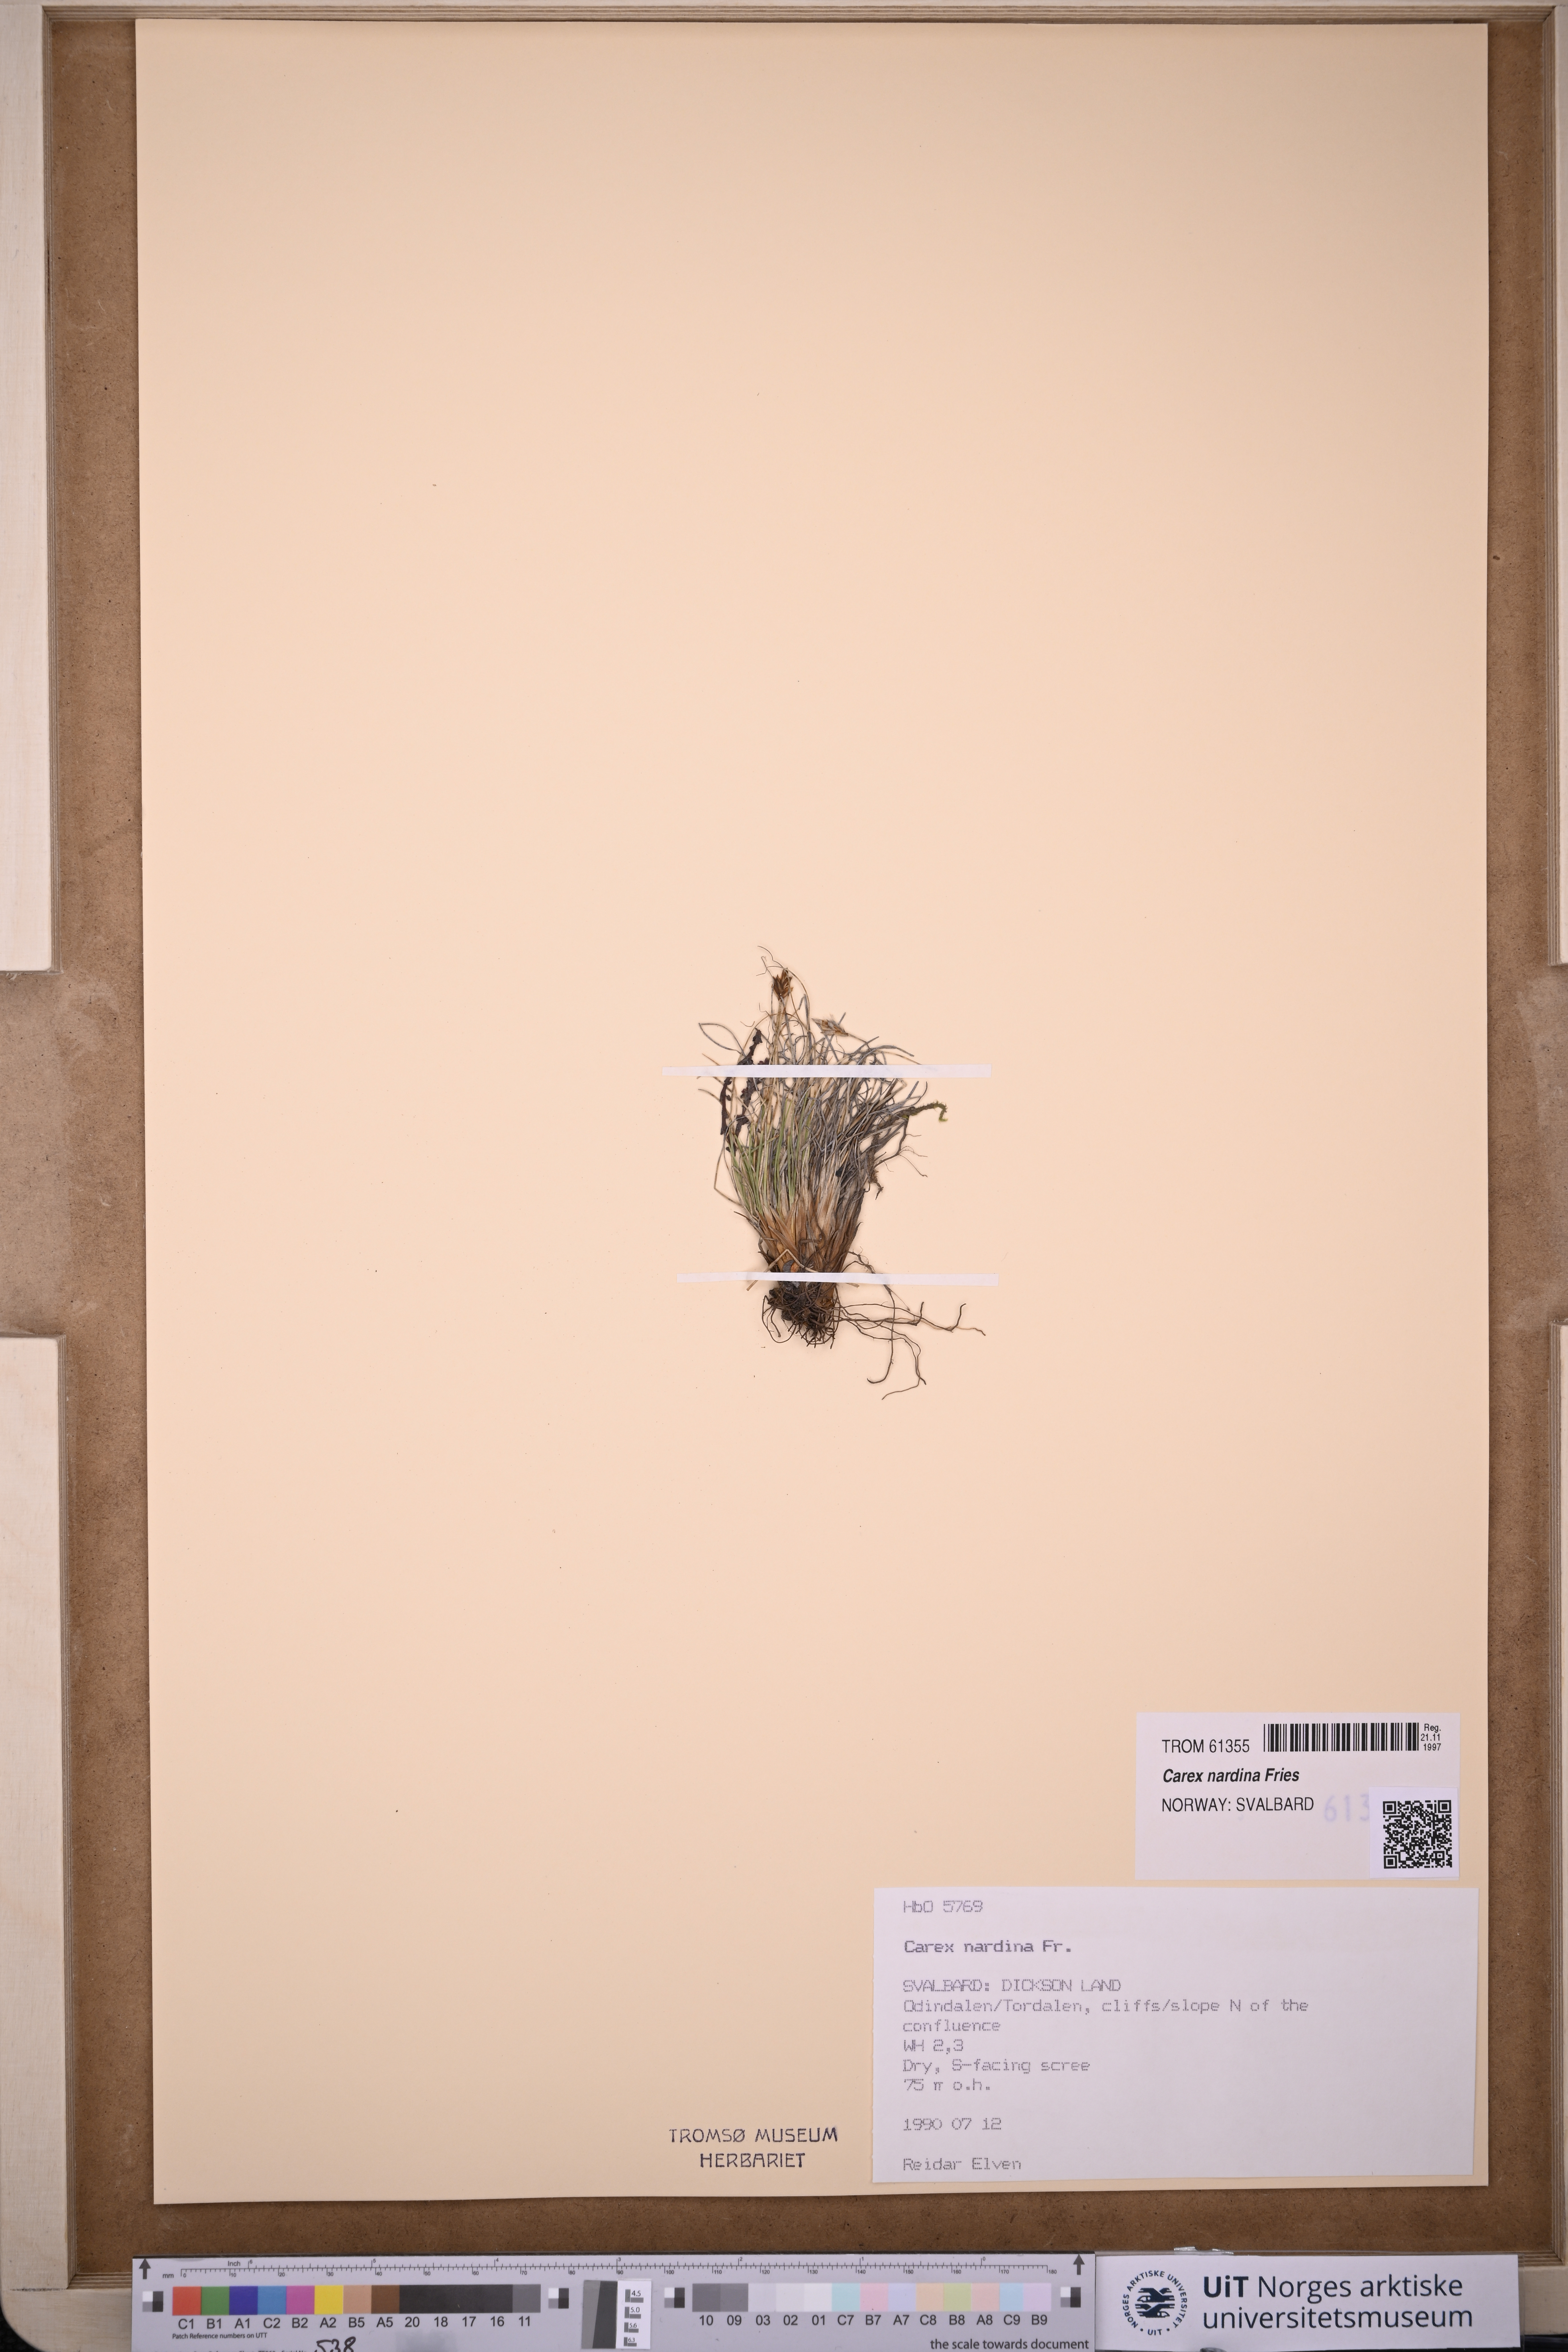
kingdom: Plantae
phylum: Tracheophyta
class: Liliopsida
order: Poales
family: Cyperaceae
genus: Carex
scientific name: Carex nardina
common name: Nard sedge
